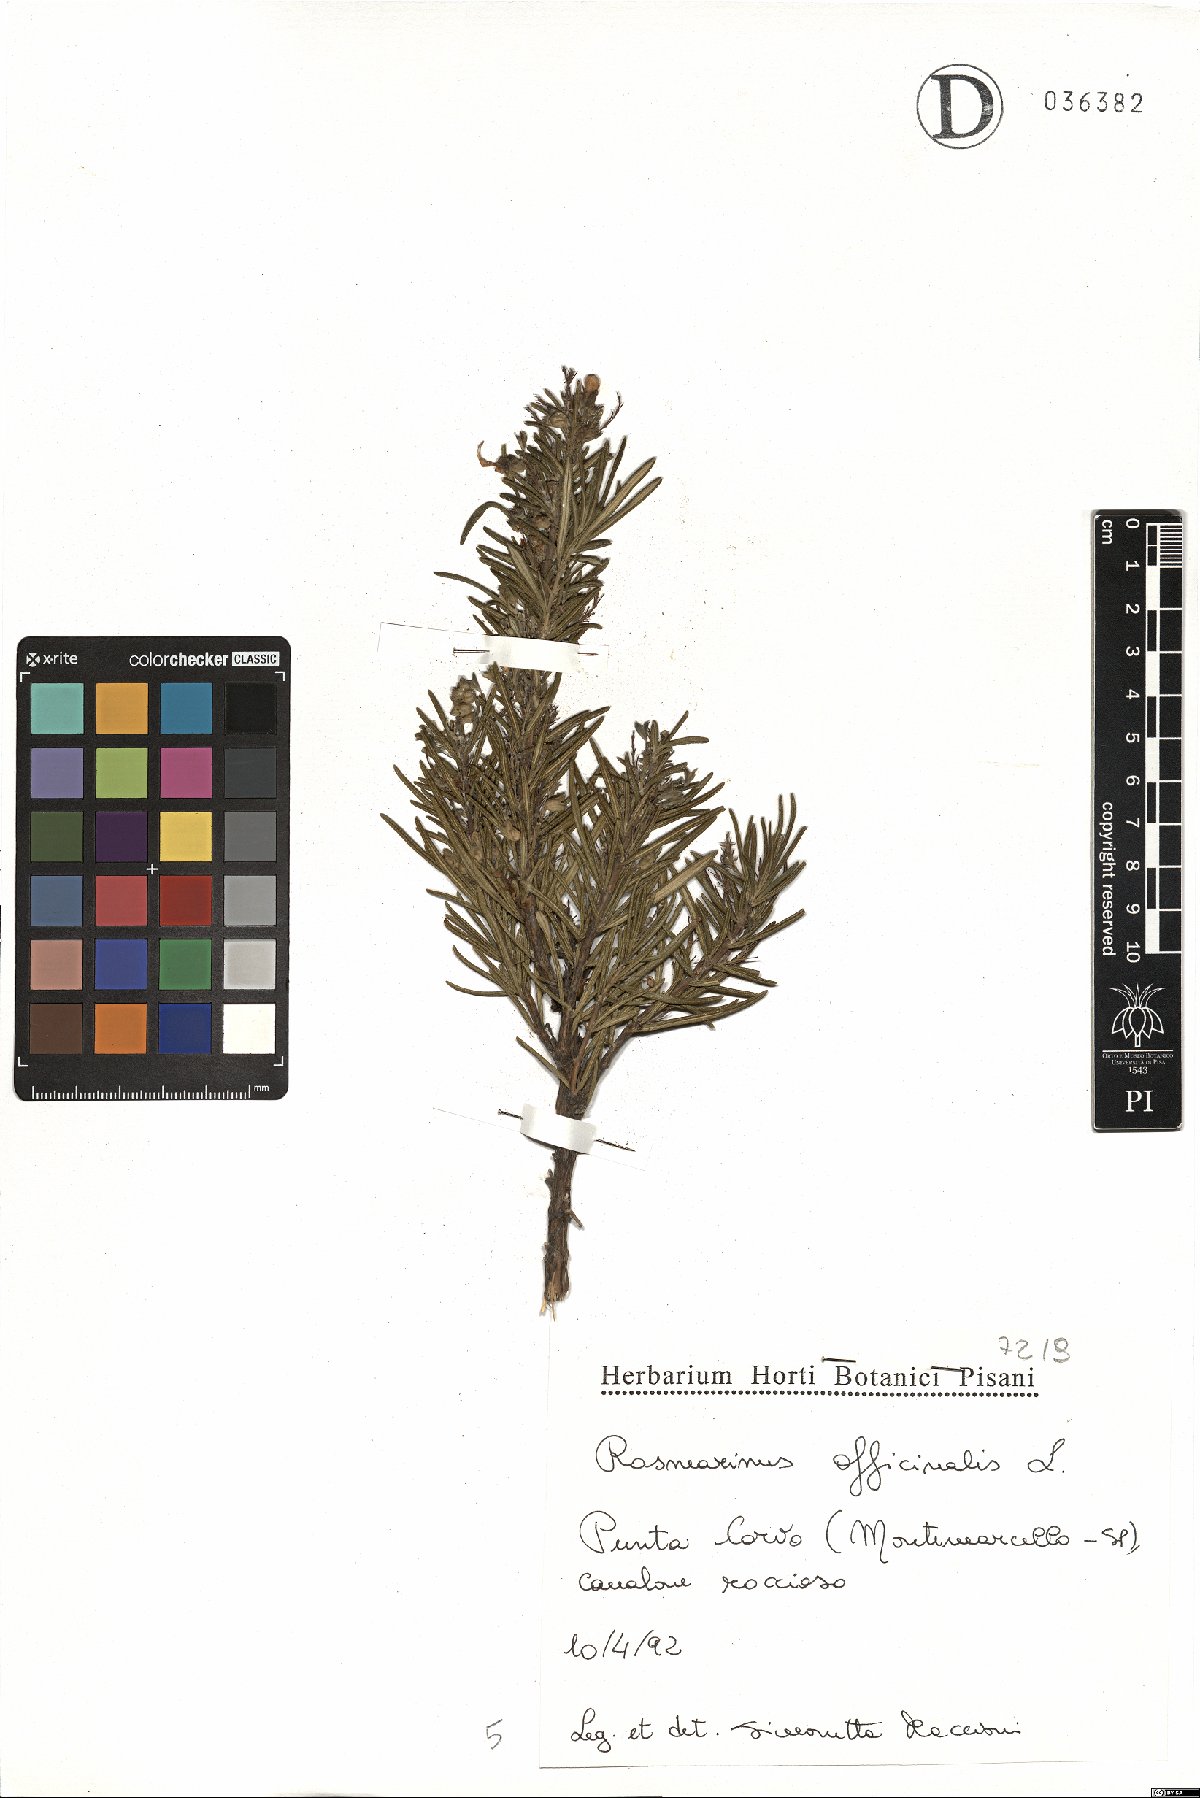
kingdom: Plantae
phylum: Tracheophyta
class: Magnoliopsida
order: Lamiales
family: Lamiaceae
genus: Salvia
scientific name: Salvia rosmarinus
